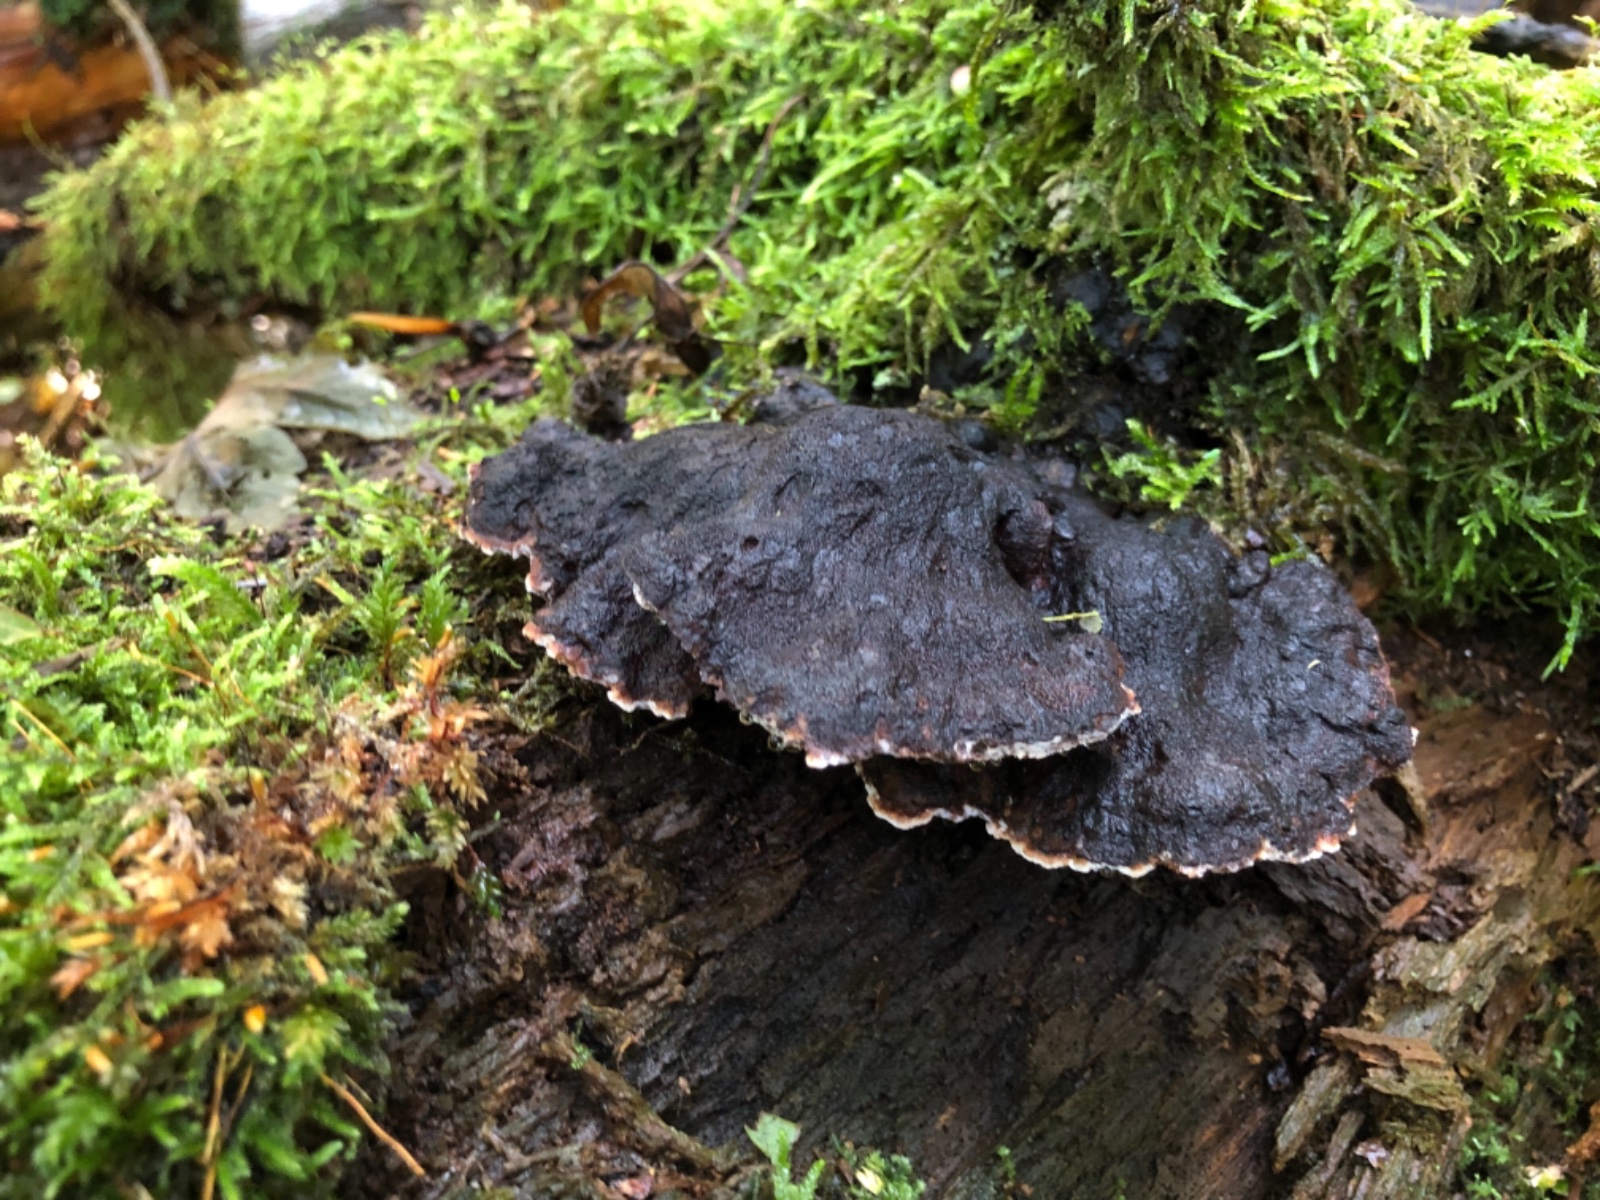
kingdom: Fungi
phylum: Basidiomycota
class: Agaricomycetes
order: Polyporales
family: Ischnodermataceae
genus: Ischnoderma
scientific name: Ischnoderma benzoinum
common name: gran-tjæreporesvamp
